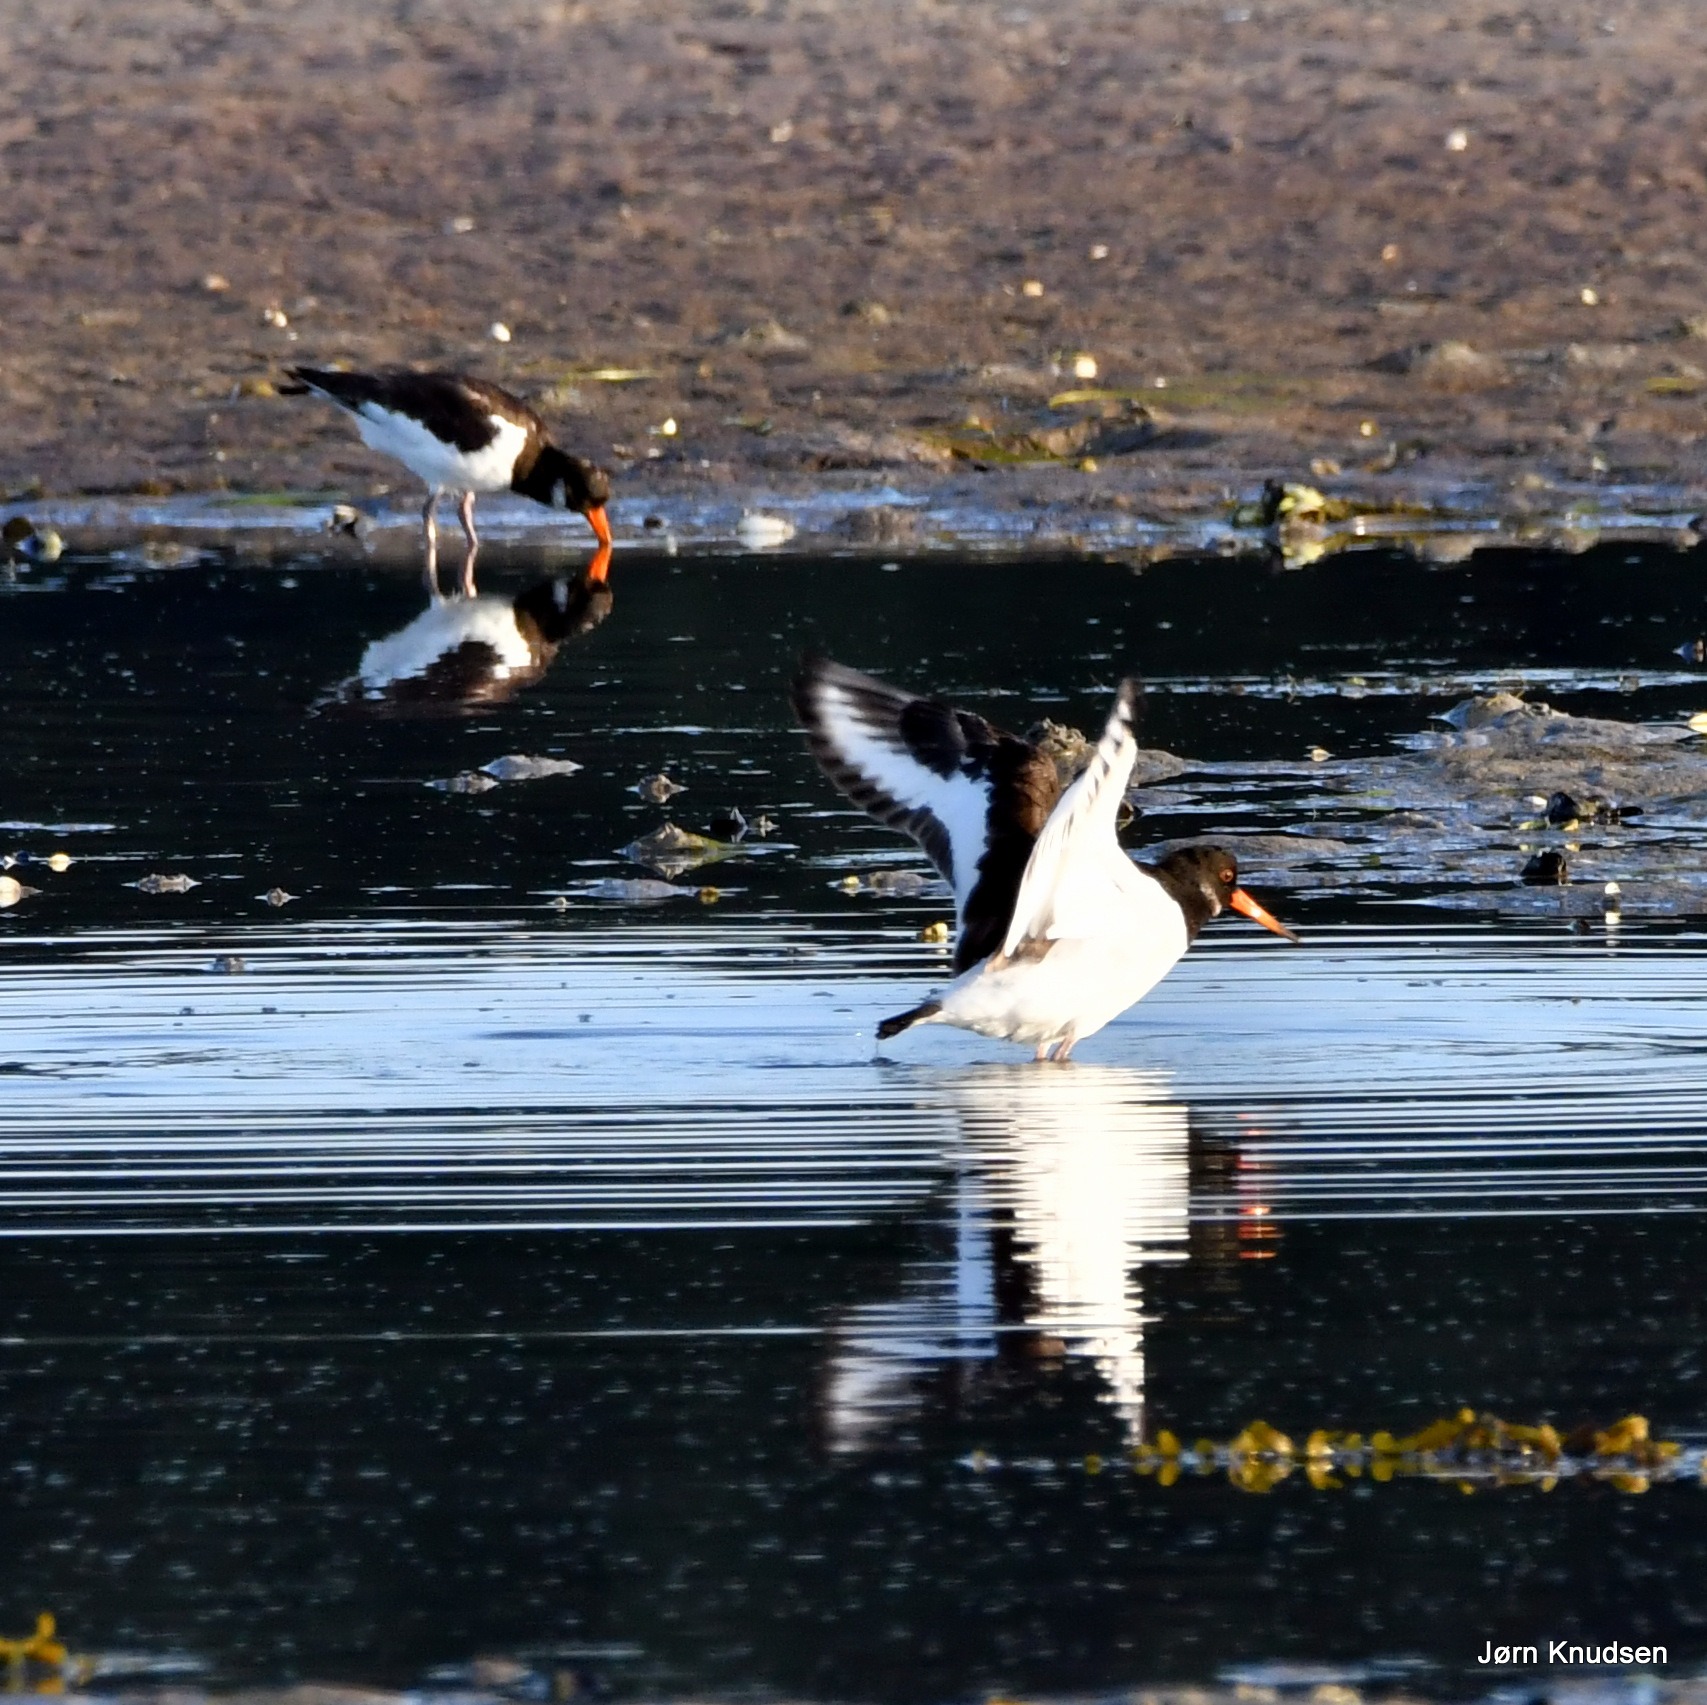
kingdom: Animalia
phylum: Chordata
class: Aves
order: Charadriiformes
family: Haematopodidae
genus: Haematopus
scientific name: Haematopus ostralegus
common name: Strandskade
